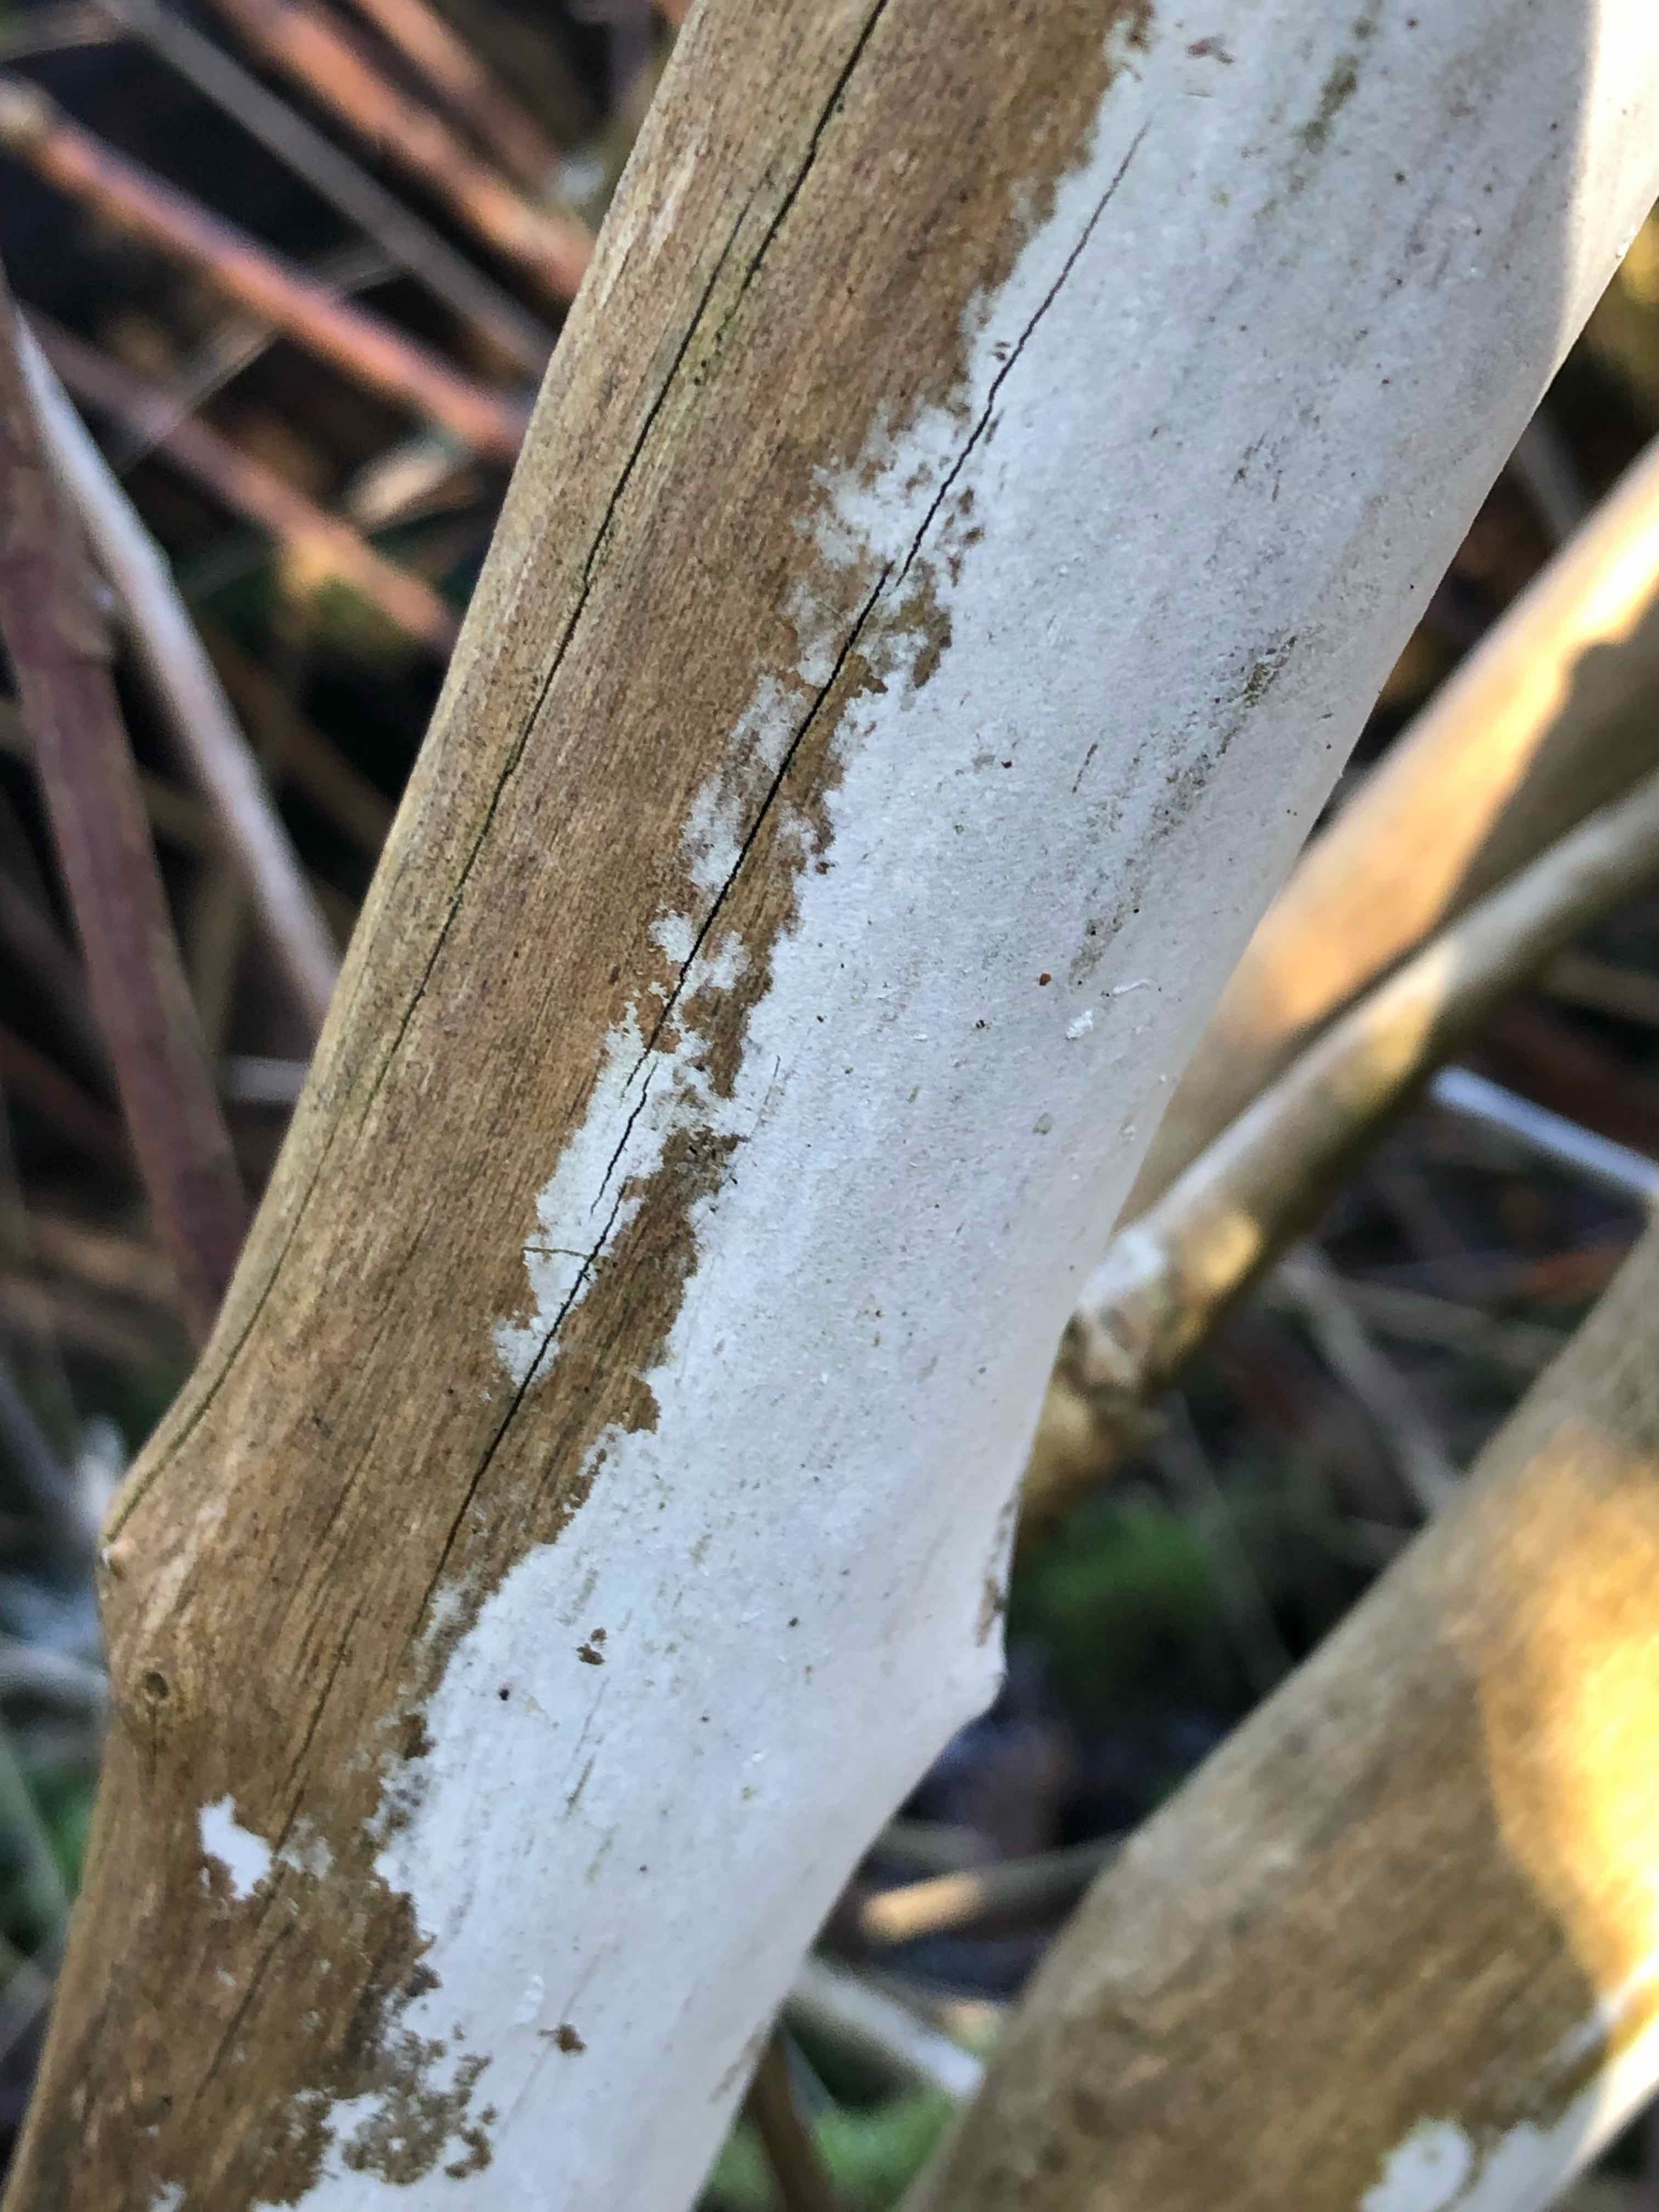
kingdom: Fungi
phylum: Basidiomycota
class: Agaricomycetes
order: Corticiales
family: Corticiaceae
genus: Lyomyces
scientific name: Lyomyces sambuci
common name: almindelig hyldehinde
